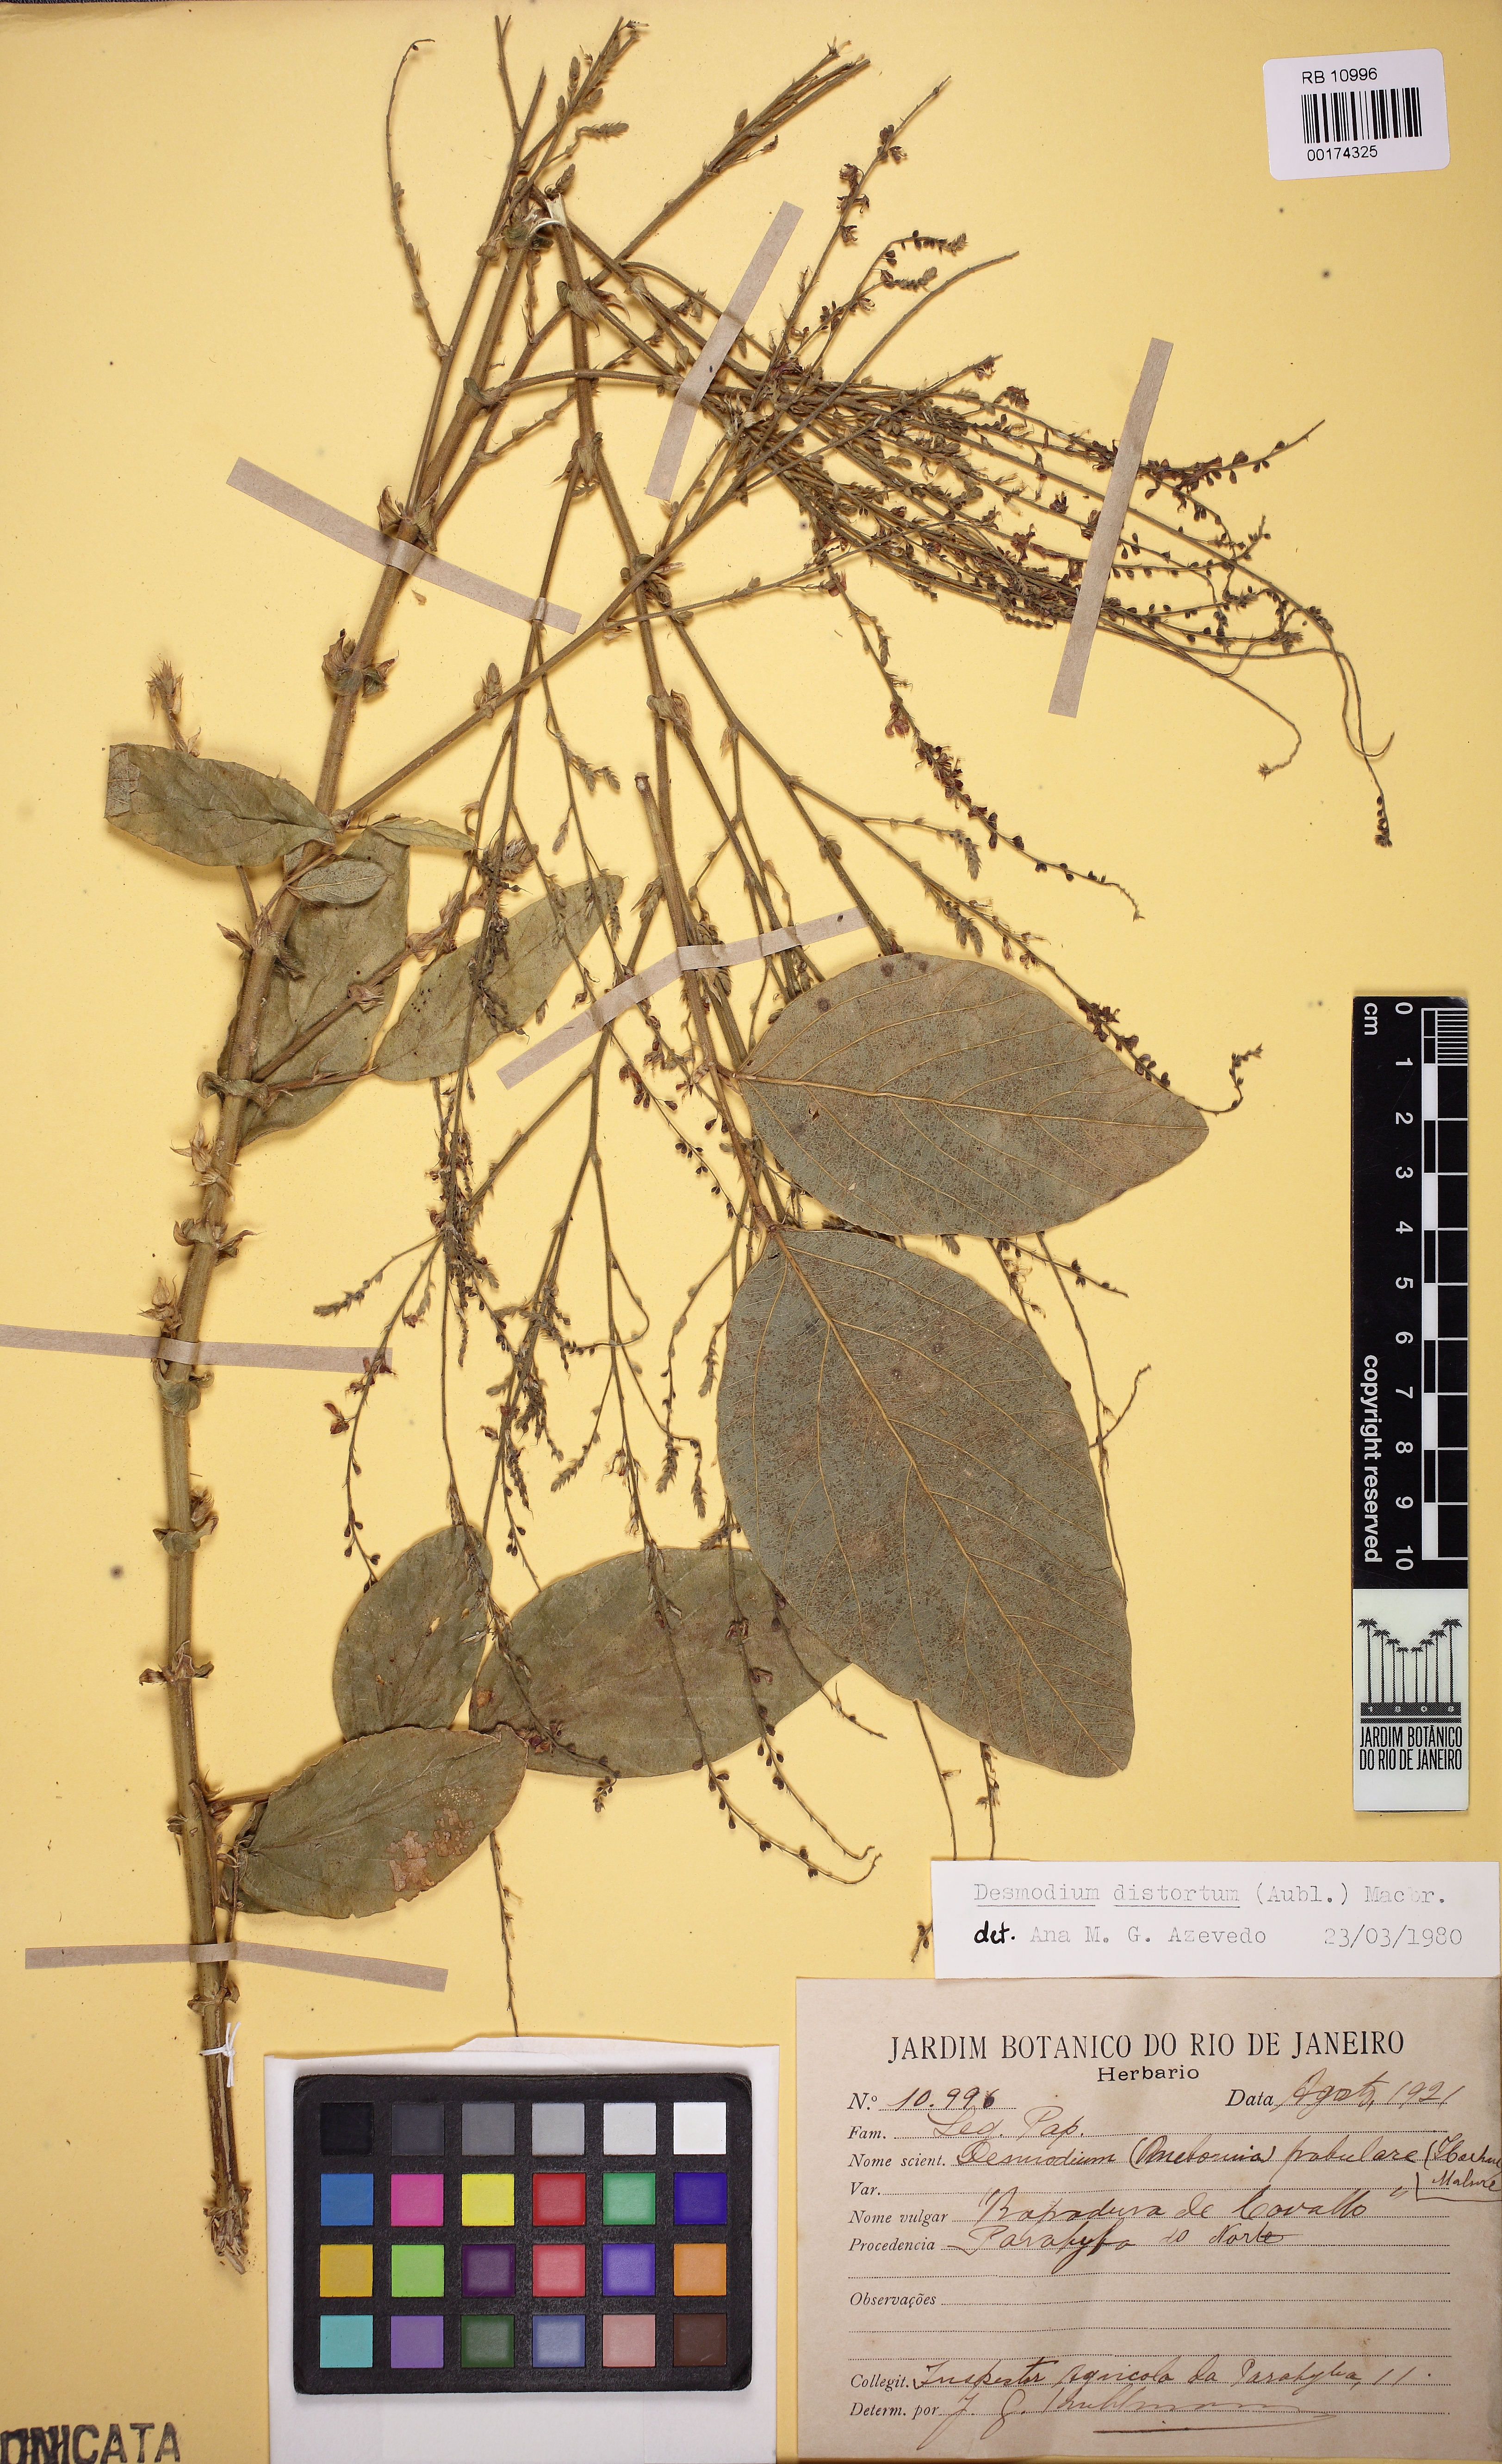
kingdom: Plantae
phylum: Tracheophyta
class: Magnoliopsida
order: Fabales
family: Fabaceae
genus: Desmodium
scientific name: Desmodium distortum
